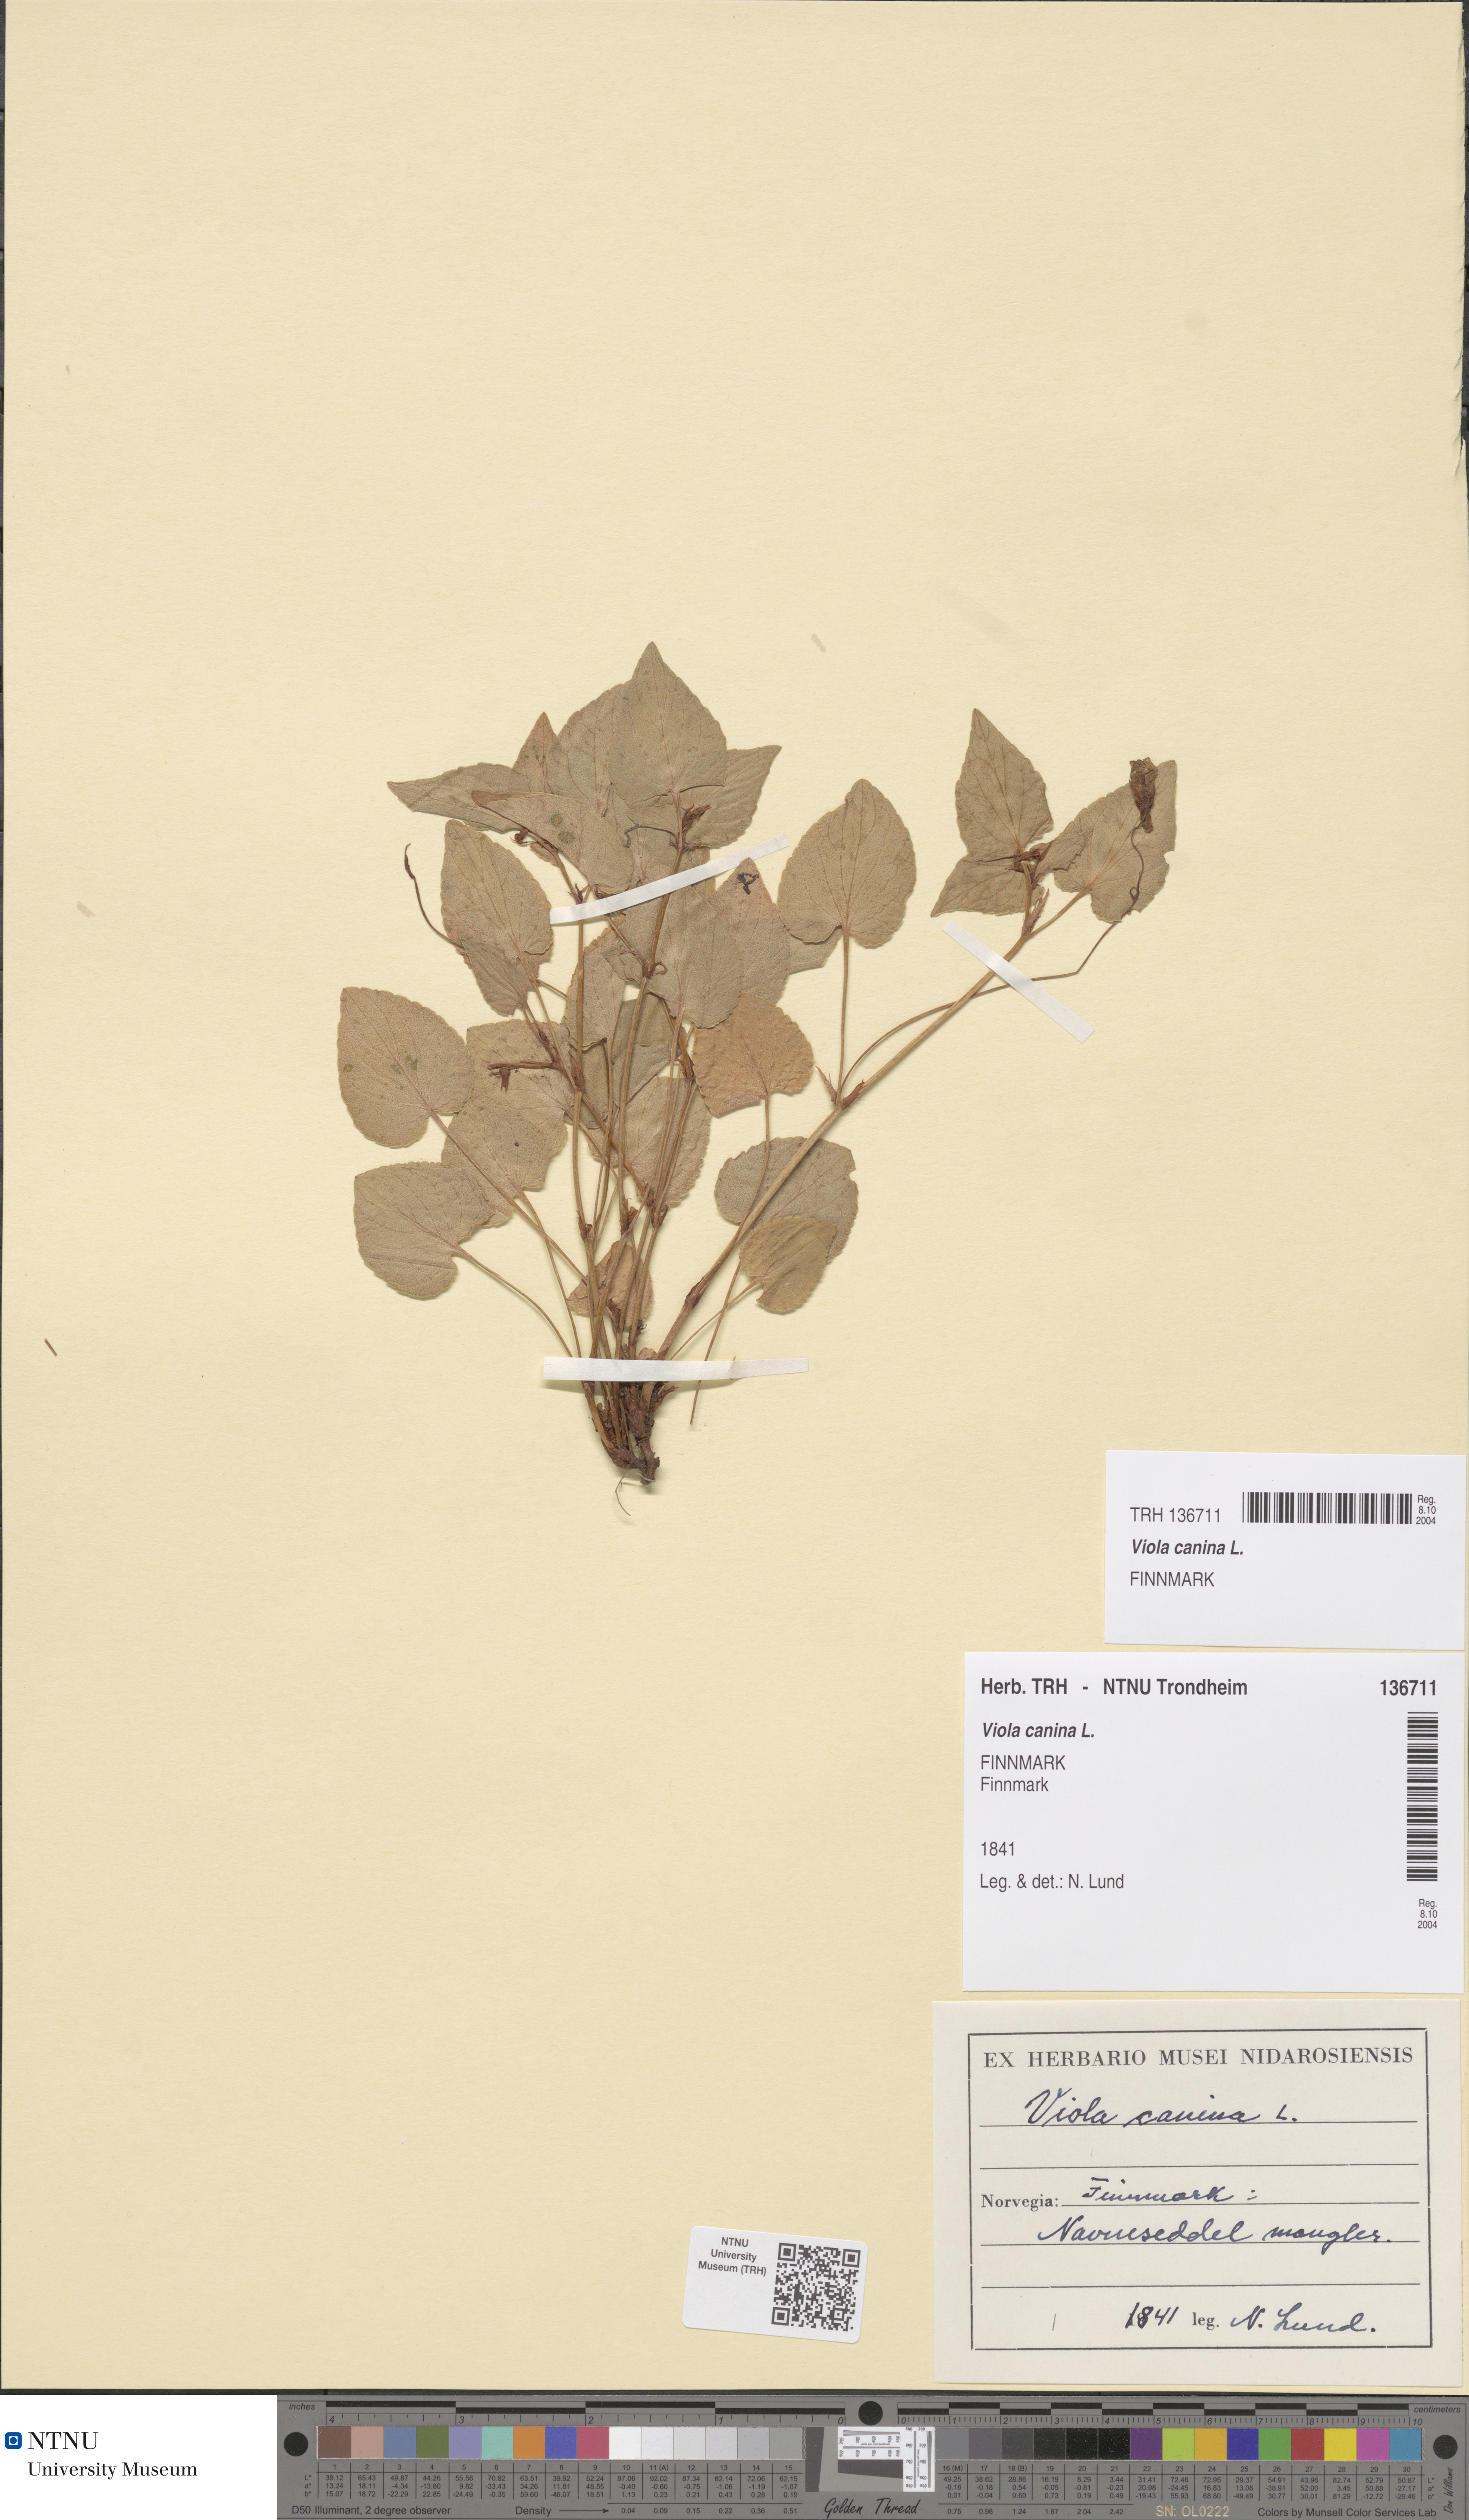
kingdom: Plantae
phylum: Tracheophyta
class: Magnoliopsida
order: Malpighiales
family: Violaceae
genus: Viola
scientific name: Viola canina
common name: Heath dog-violet
